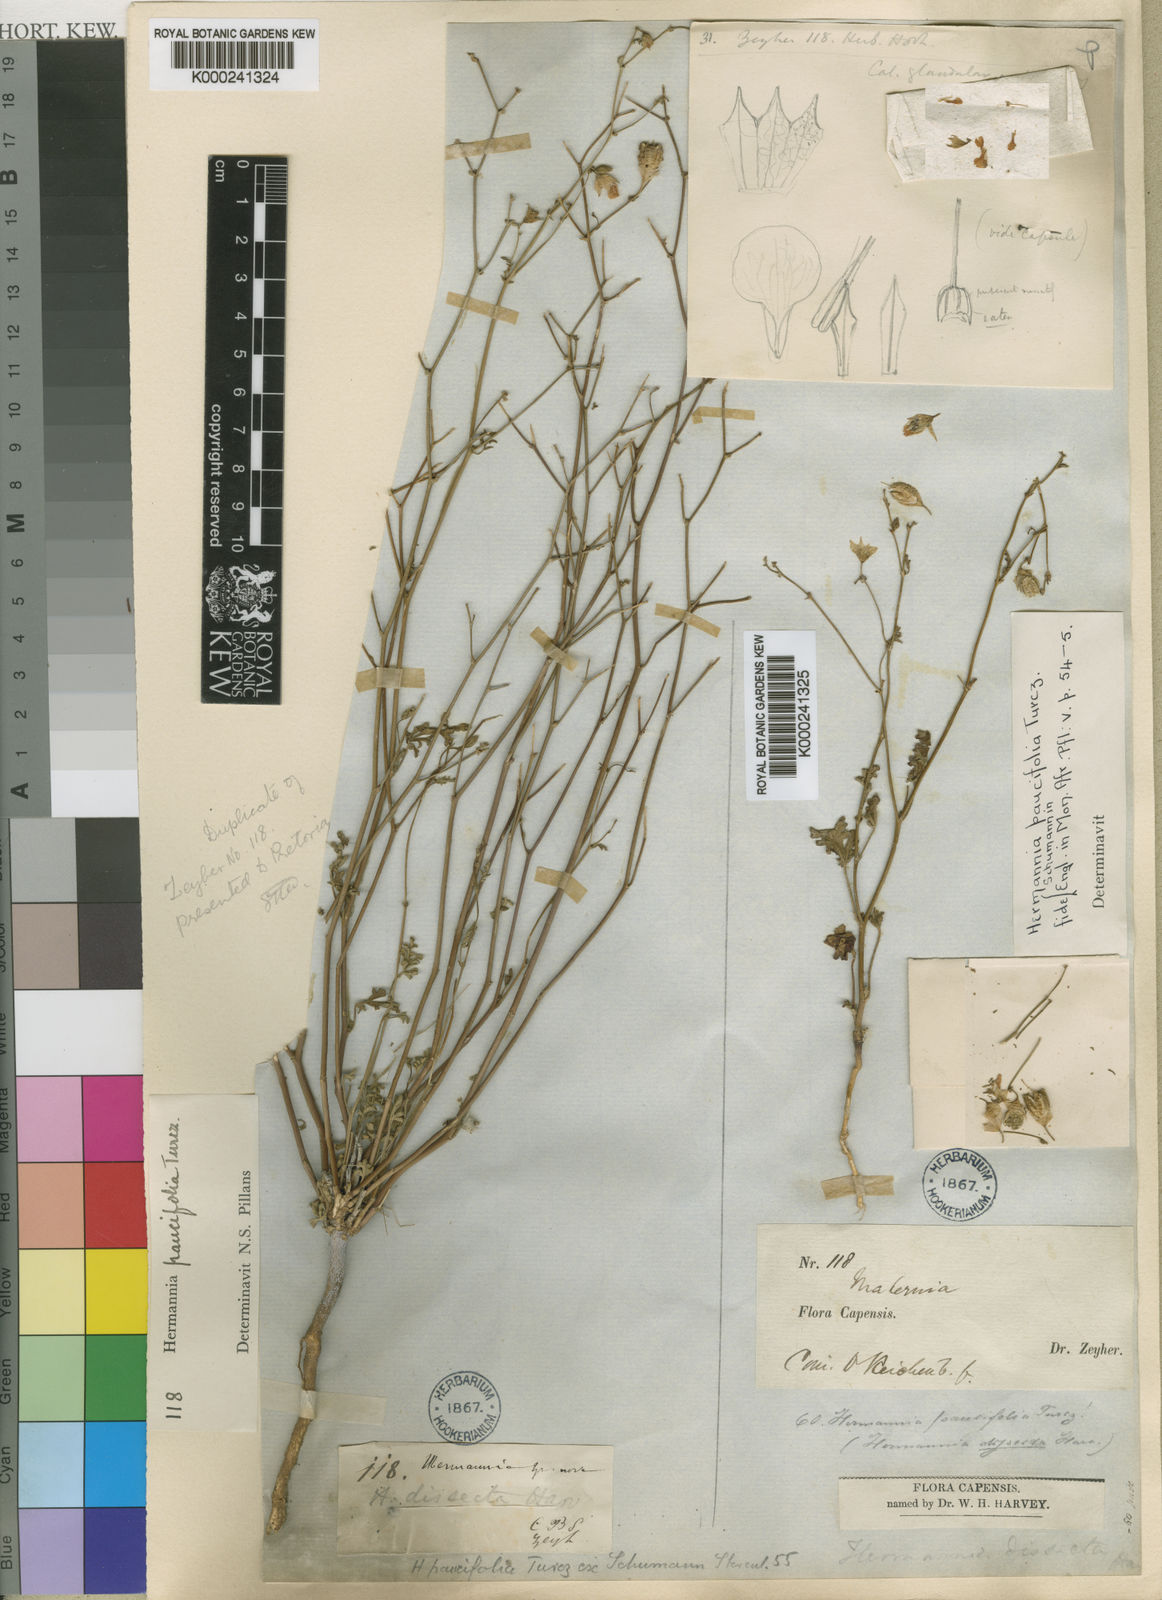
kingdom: Plantae
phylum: Tracheophyta
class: Magnoliopsida
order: Malvales
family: Malvaceae
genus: Hermannia
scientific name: Hermannia paucifolia
